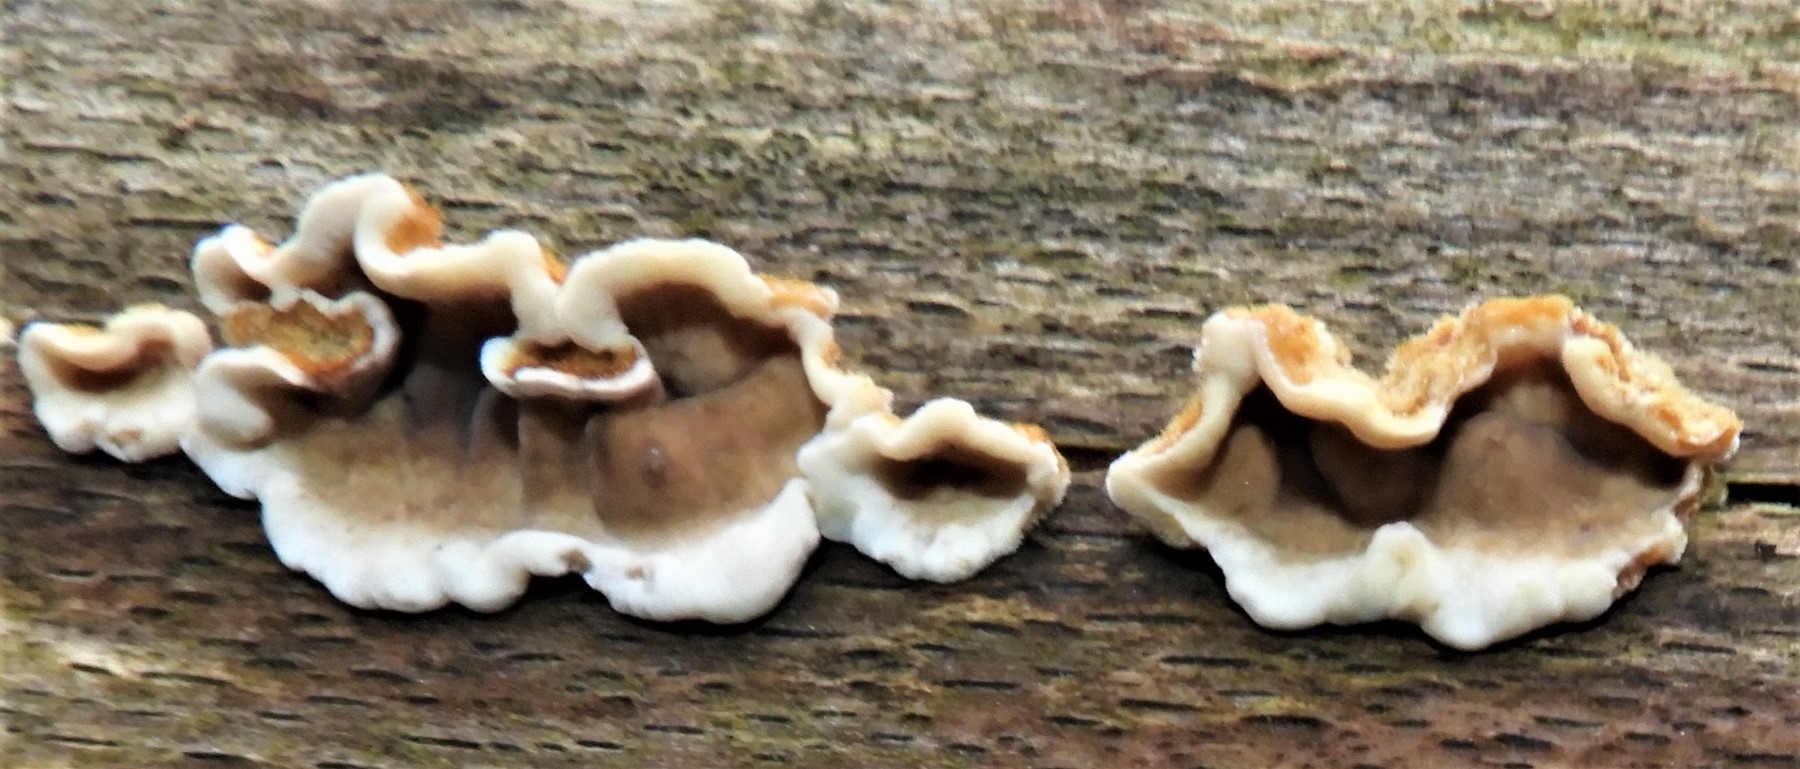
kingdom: Fungi
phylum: Basidiomycota
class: Agaricomycetes
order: Russulales
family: Stereaceae
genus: Stereum
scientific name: Stereum
